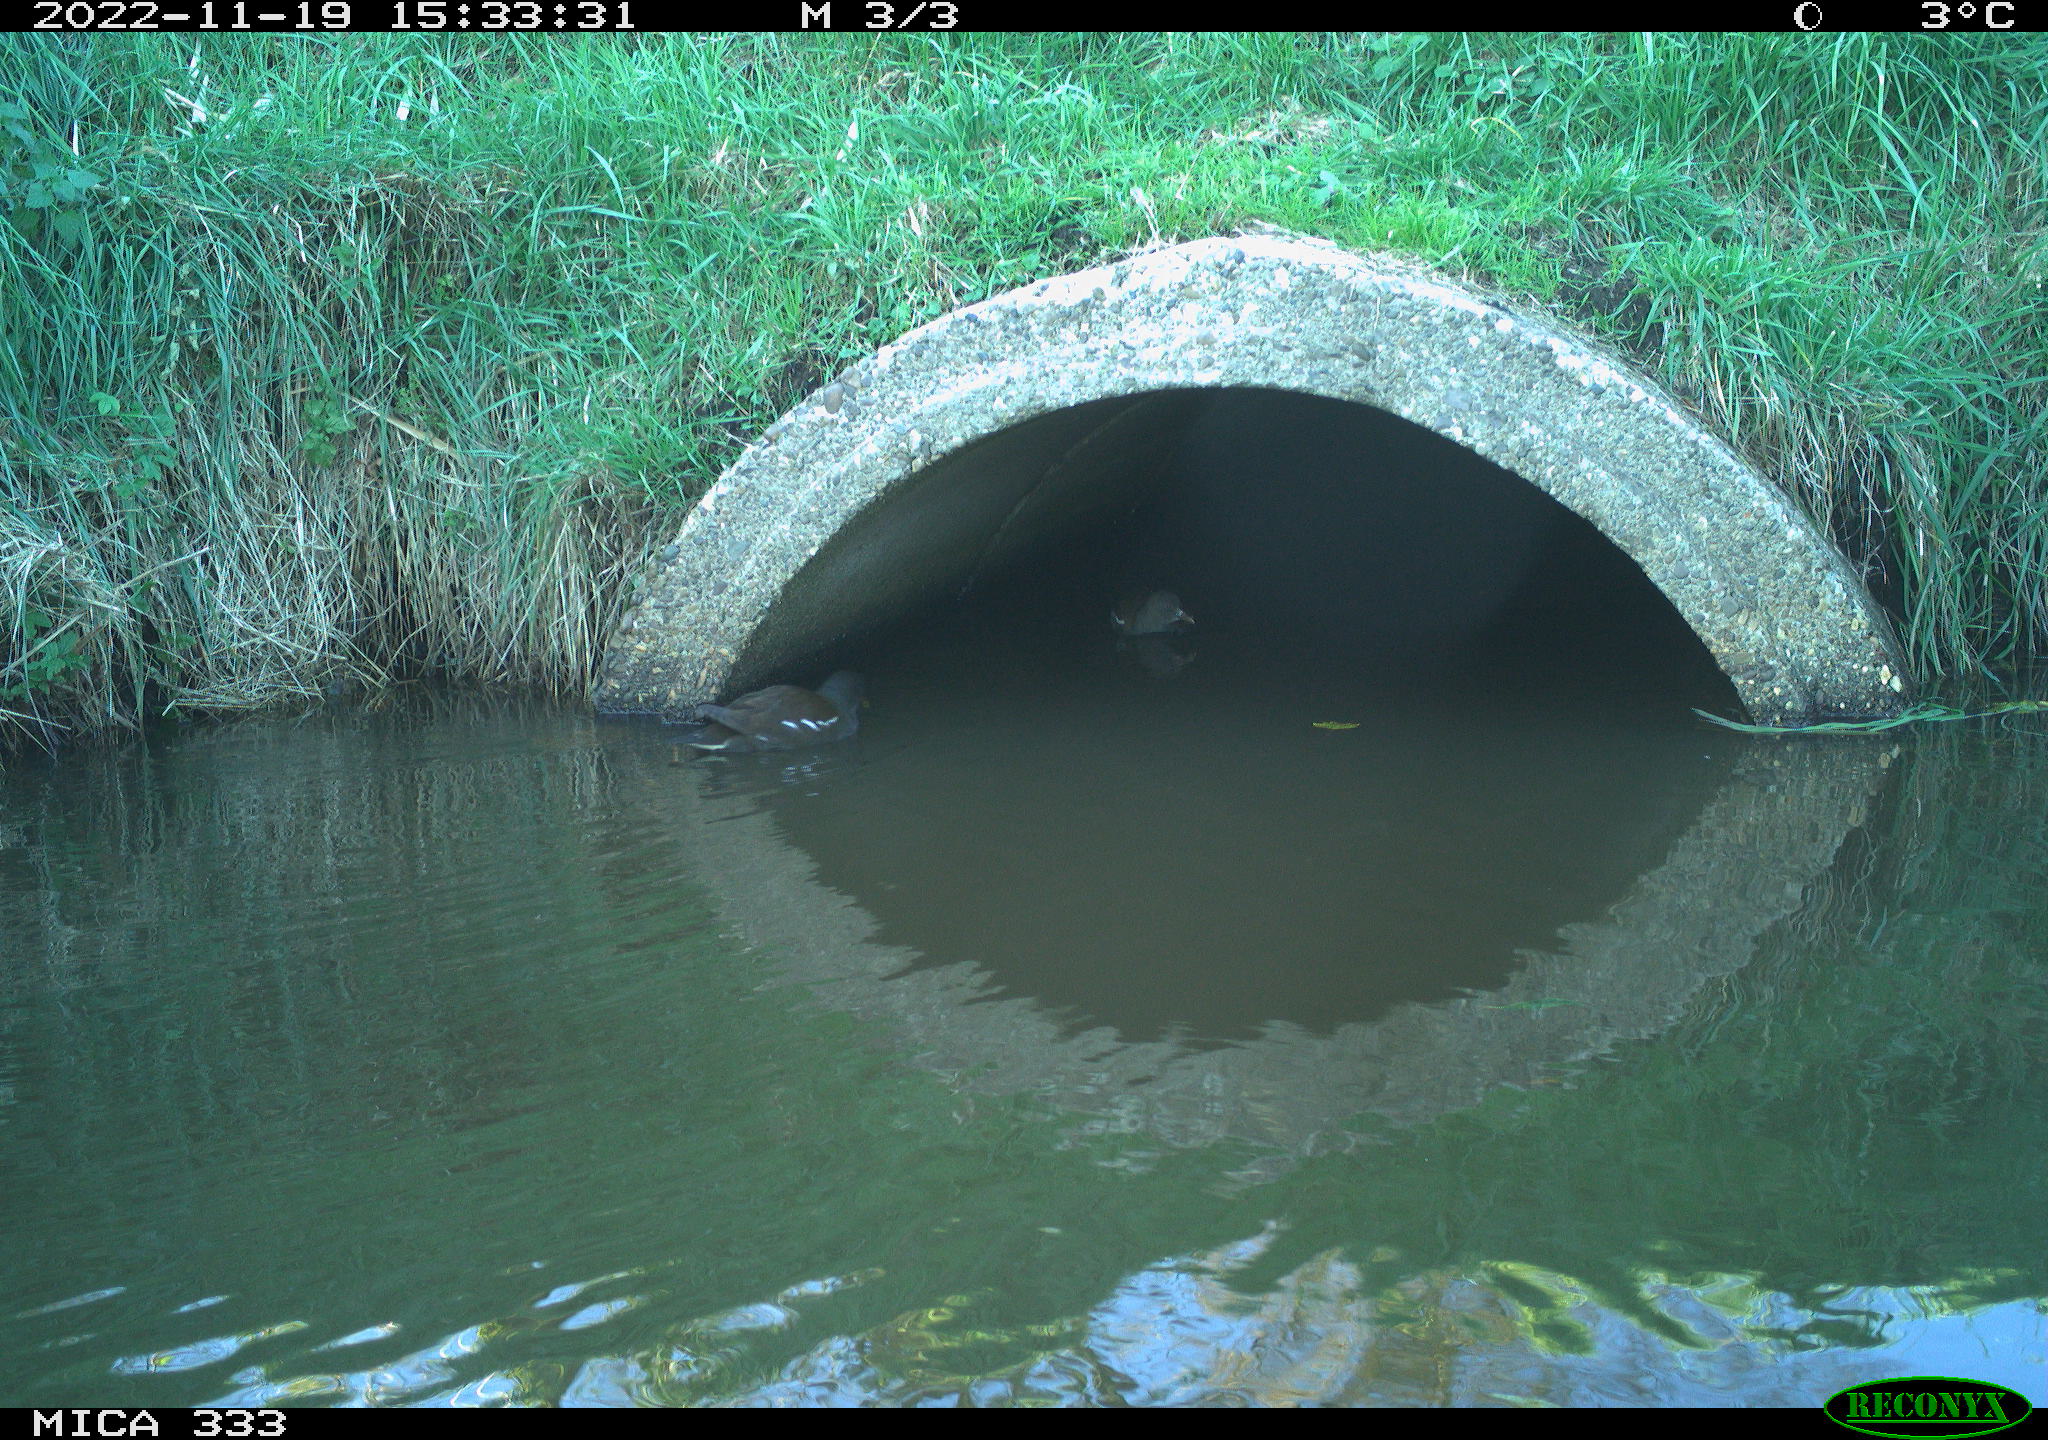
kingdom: Animalia
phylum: Chordata
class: Aves
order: Gruiformes
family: Rallidae
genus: Gallinula
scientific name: Gallinula chloropus
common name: Common moorhen
